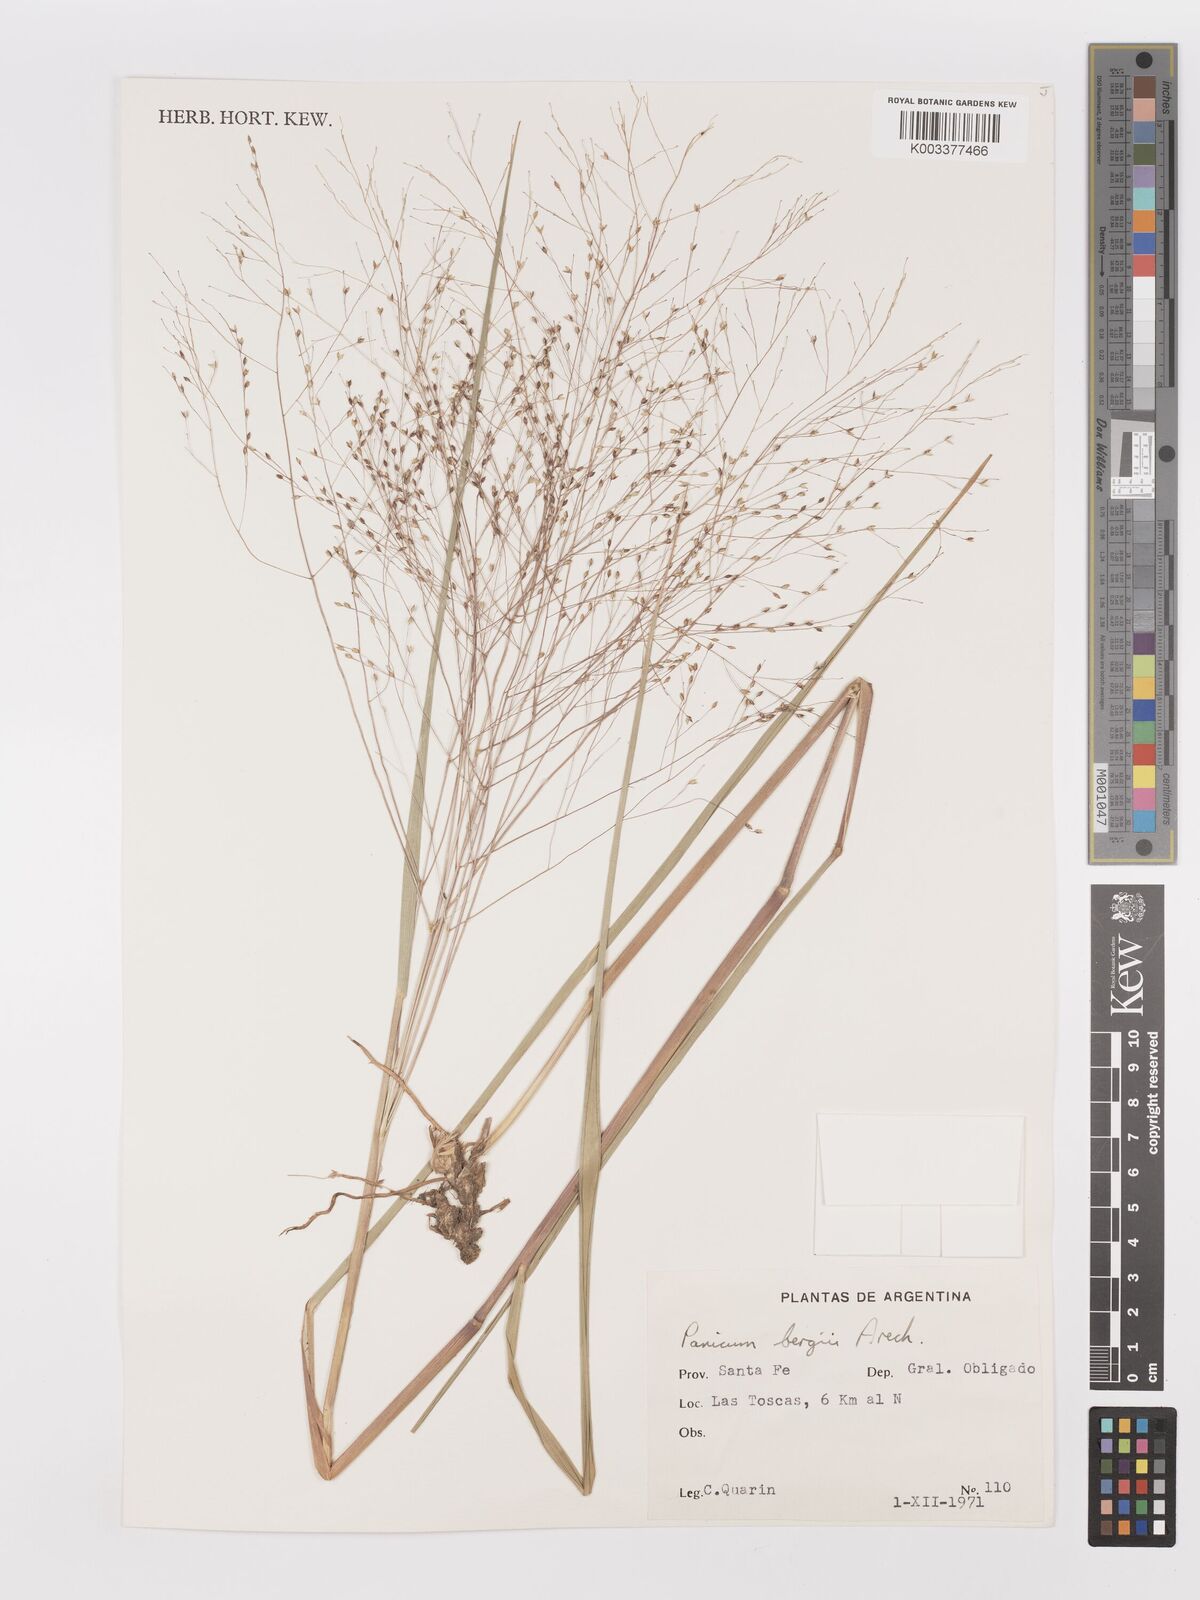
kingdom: Plantae
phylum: Tracheophyta
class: Liliopsida
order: Poales
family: Poaceae
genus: Panicum
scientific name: Panicum bergii
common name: Berg's panicgrass
